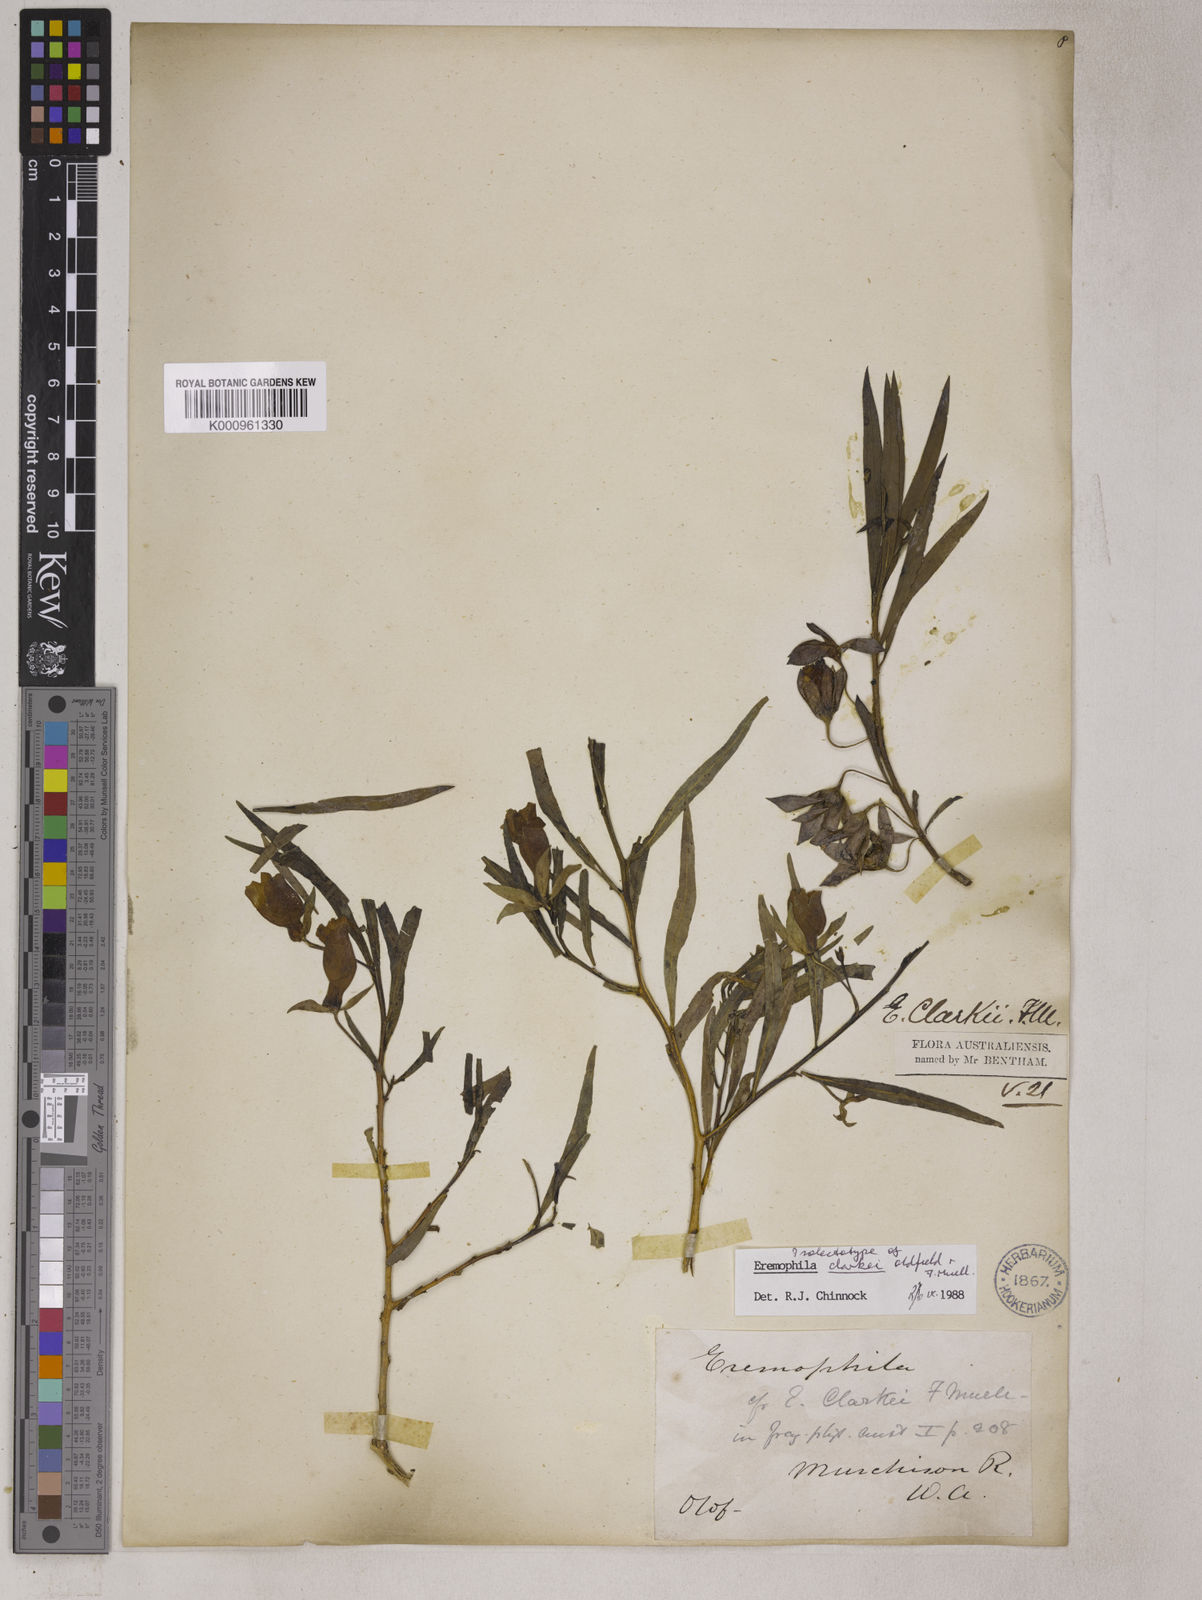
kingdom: Plantae
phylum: Tracheophyta
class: Magnoliopsida
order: Lamiales
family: Scrophulariaceae
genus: Eremophila
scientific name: Eremophila clarkei
